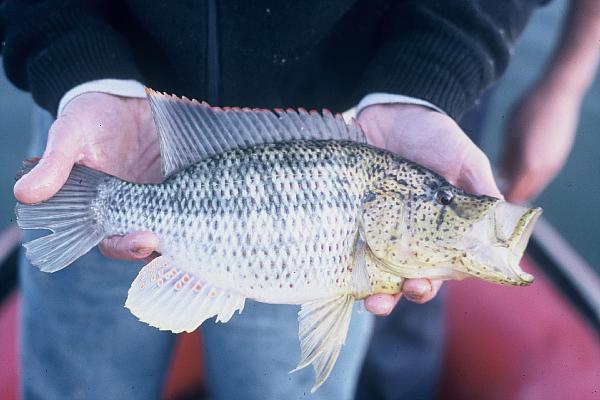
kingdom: Animalia
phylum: Chordata
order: Perciformes
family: Cichlidae
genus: Serranochromis
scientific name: Serranochromis angusticeps
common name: Thinface largemouth
